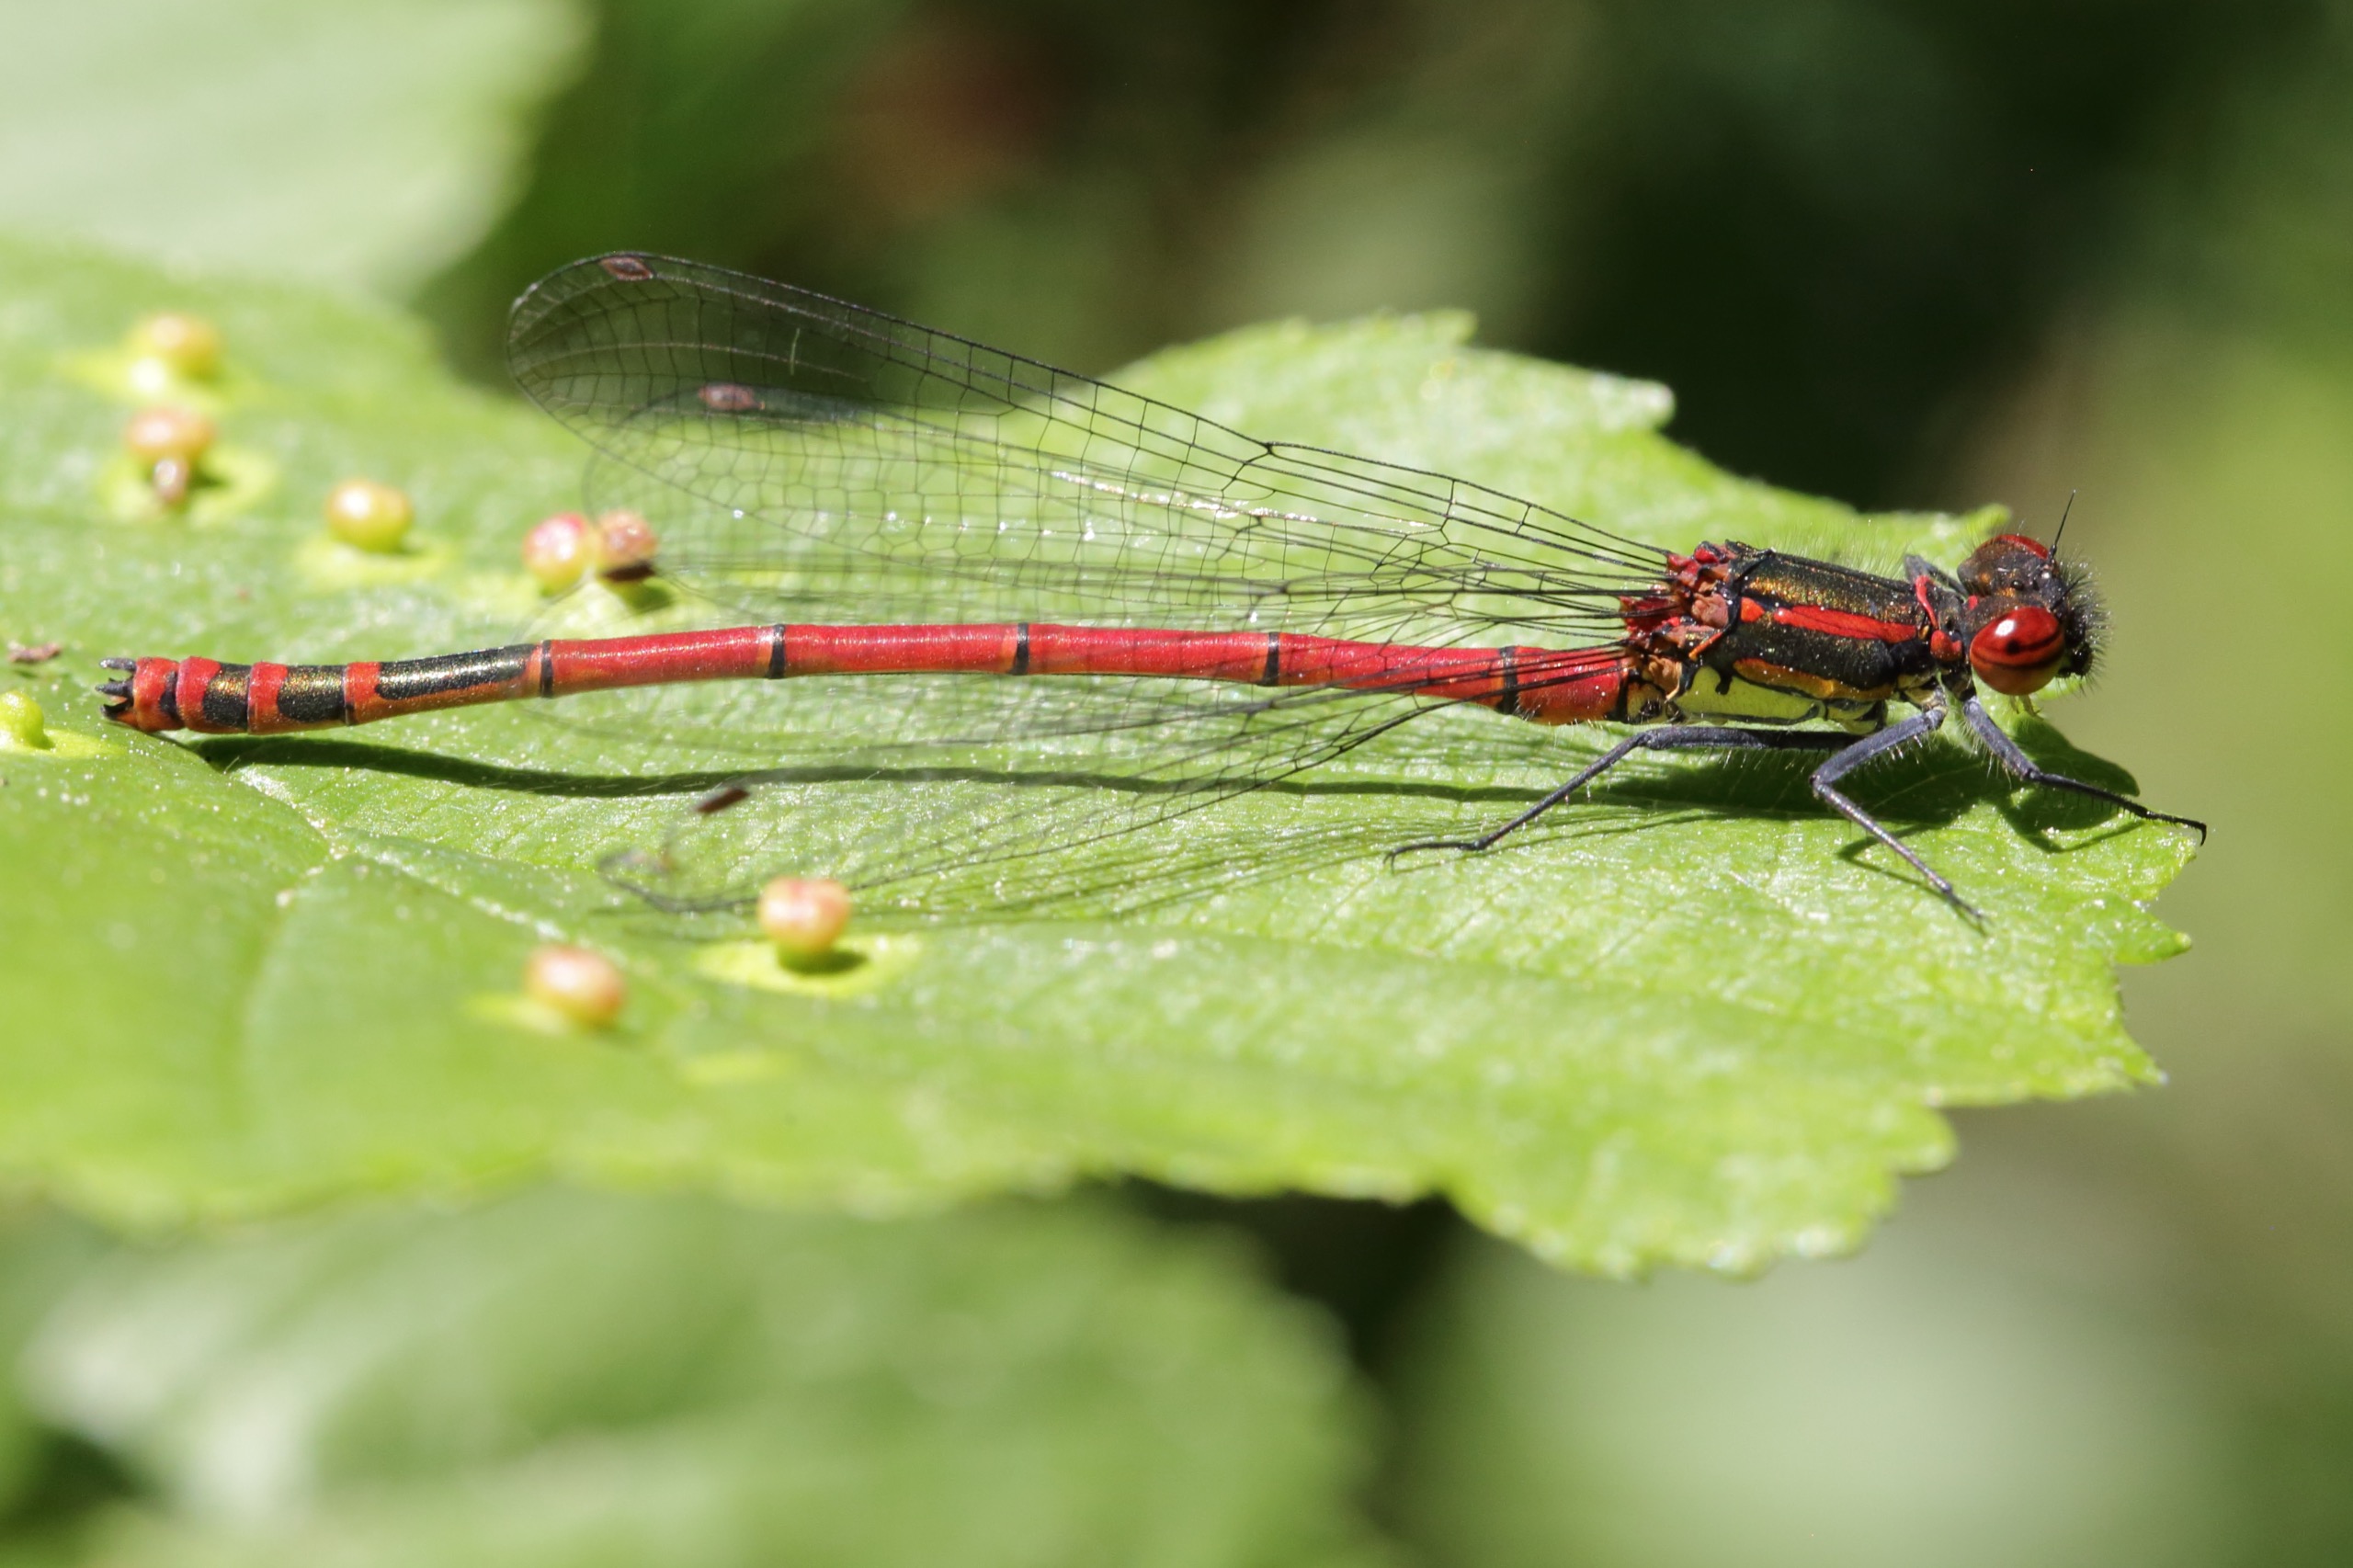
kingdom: Animalia
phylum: Arthropoda
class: Insecta
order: Odonata
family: Coenagrionidae
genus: Pyrrhosoma
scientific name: Pyrrhosoma nymphula
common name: Rød vandnymfe
